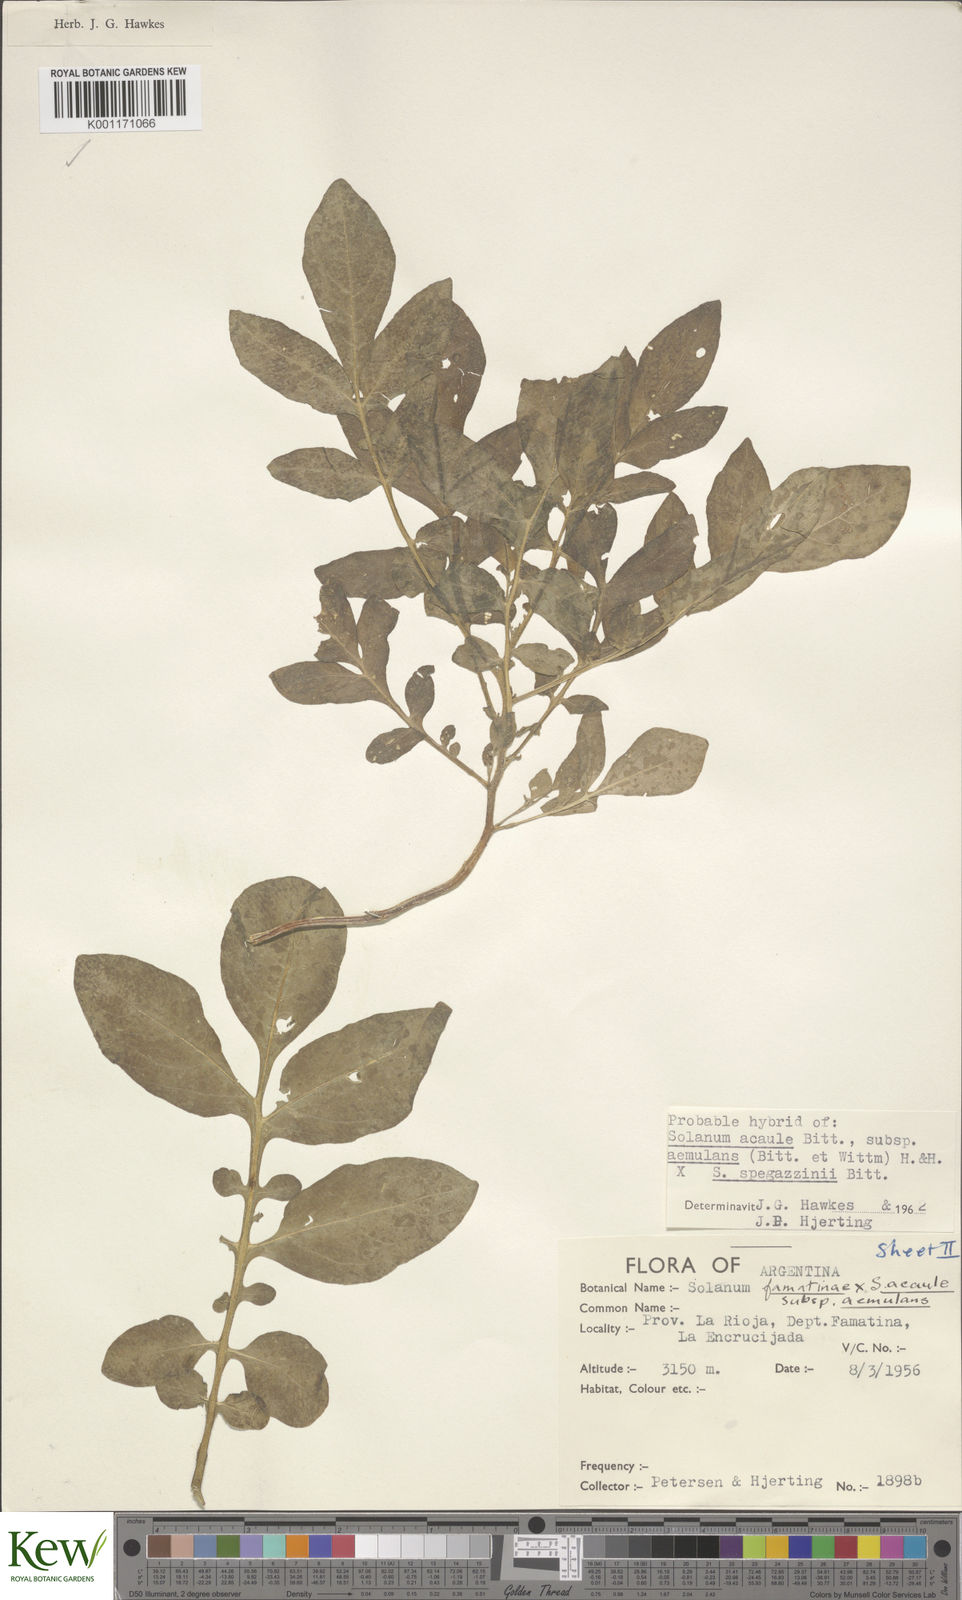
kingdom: Plantae
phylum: Tracheophyta
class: Magnoliopsida
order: Solanales
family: Solanaceae
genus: Solanum
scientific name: Solanum aemulans
